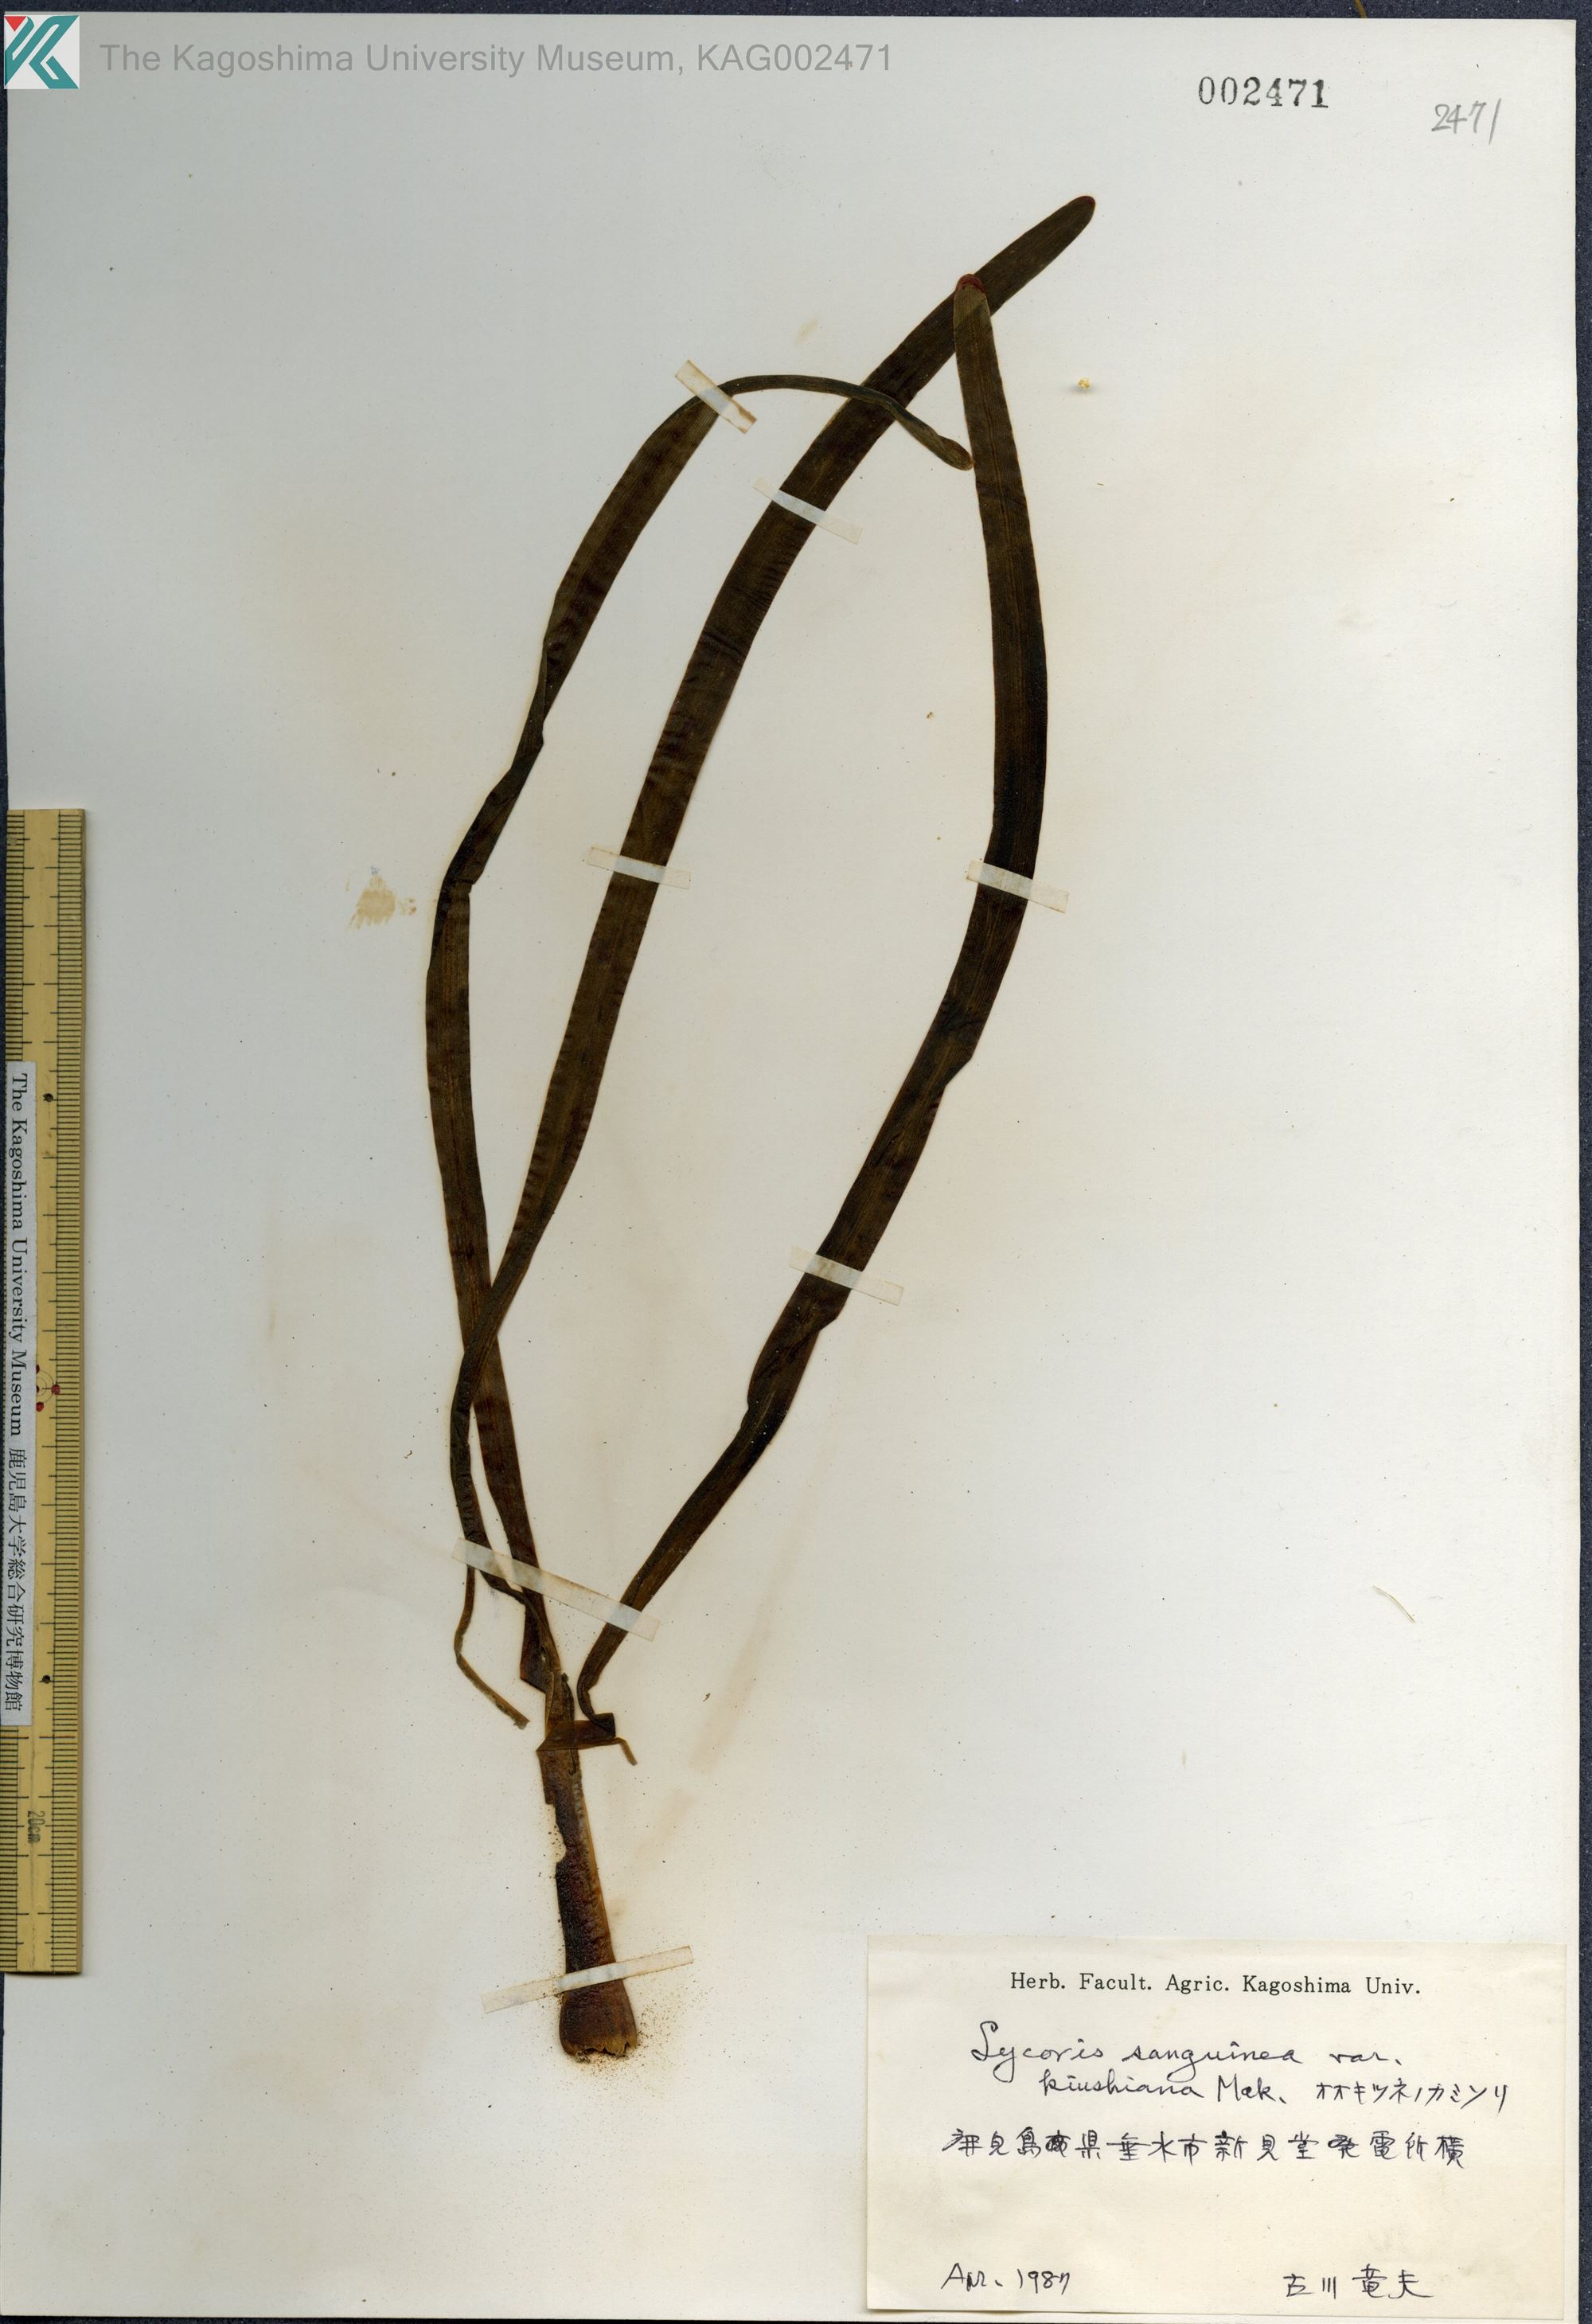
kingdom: Plantae
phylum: Tracheophyta
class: Liliopsida
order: Asparagales
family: Amaryllidaceae
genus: Lycoris
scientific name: Lycoris sanguinea
